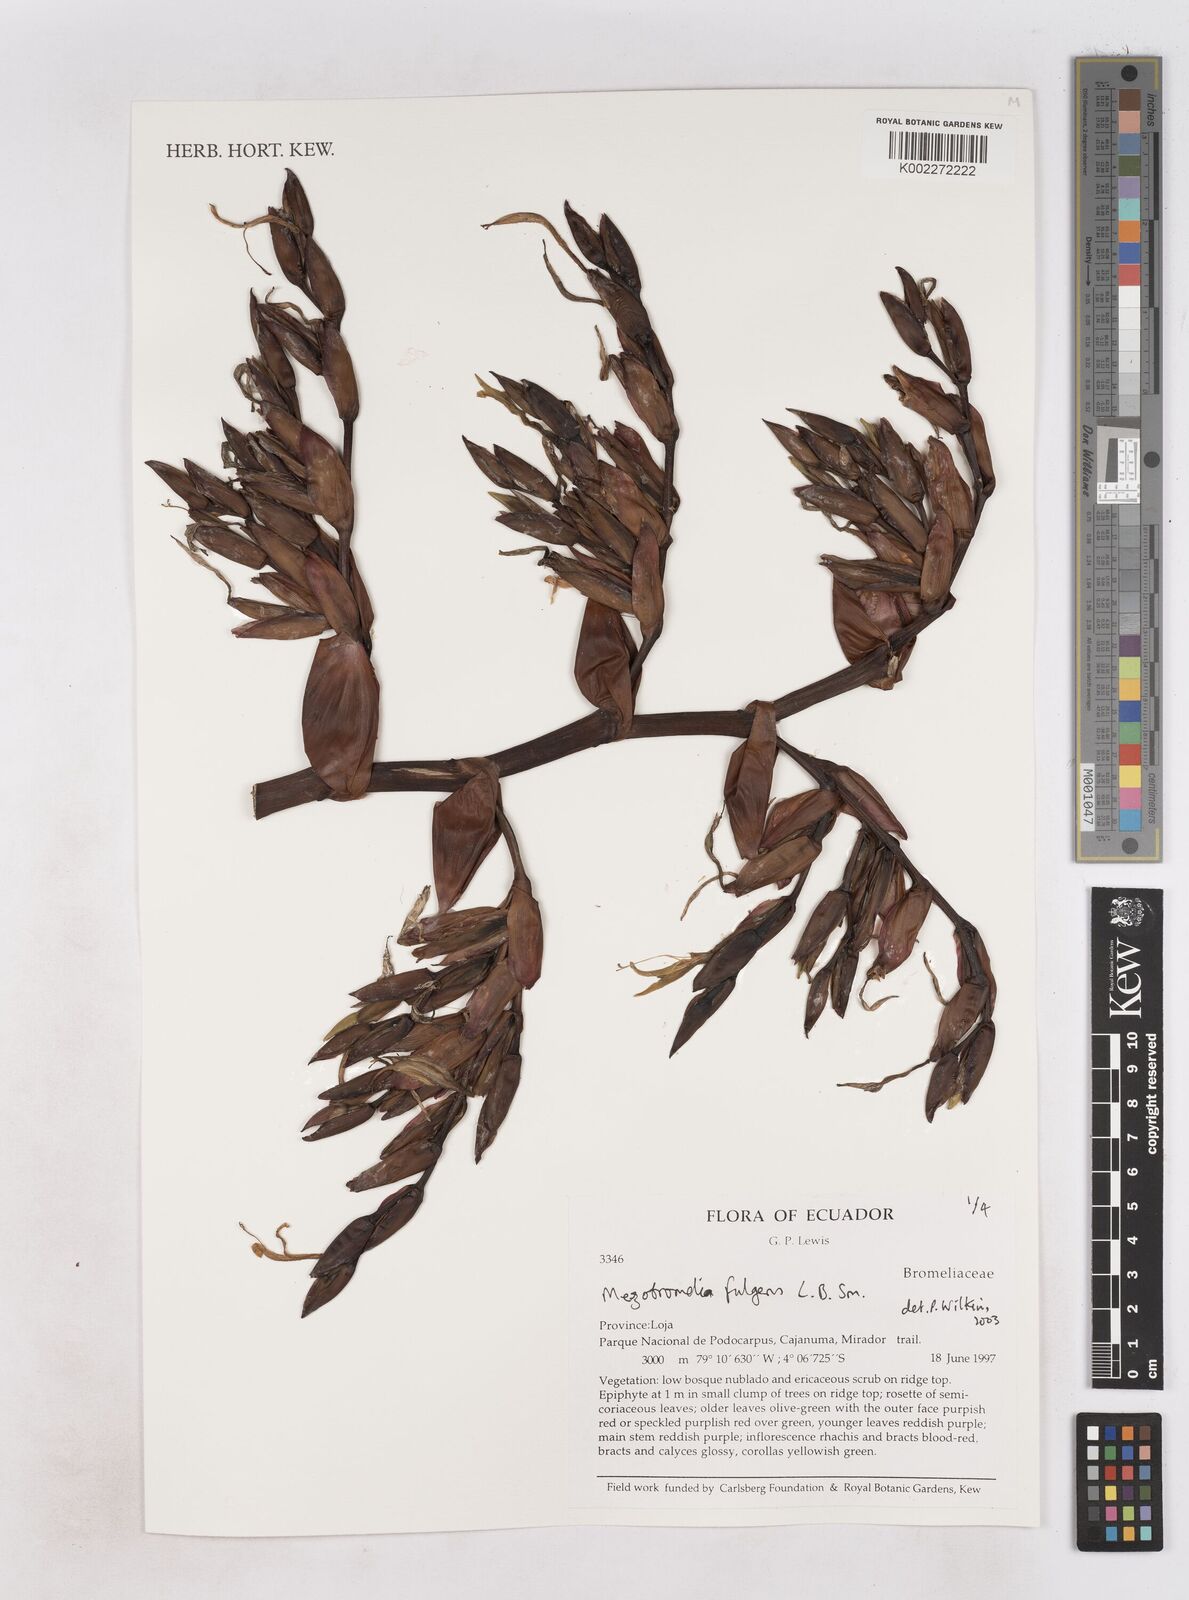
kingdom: Plantae
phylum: Tracheophyta
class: Liliopsida
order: Poales
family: Bromeliaceae
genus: Gregbrownia
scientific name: Gregbrownia fulgens
